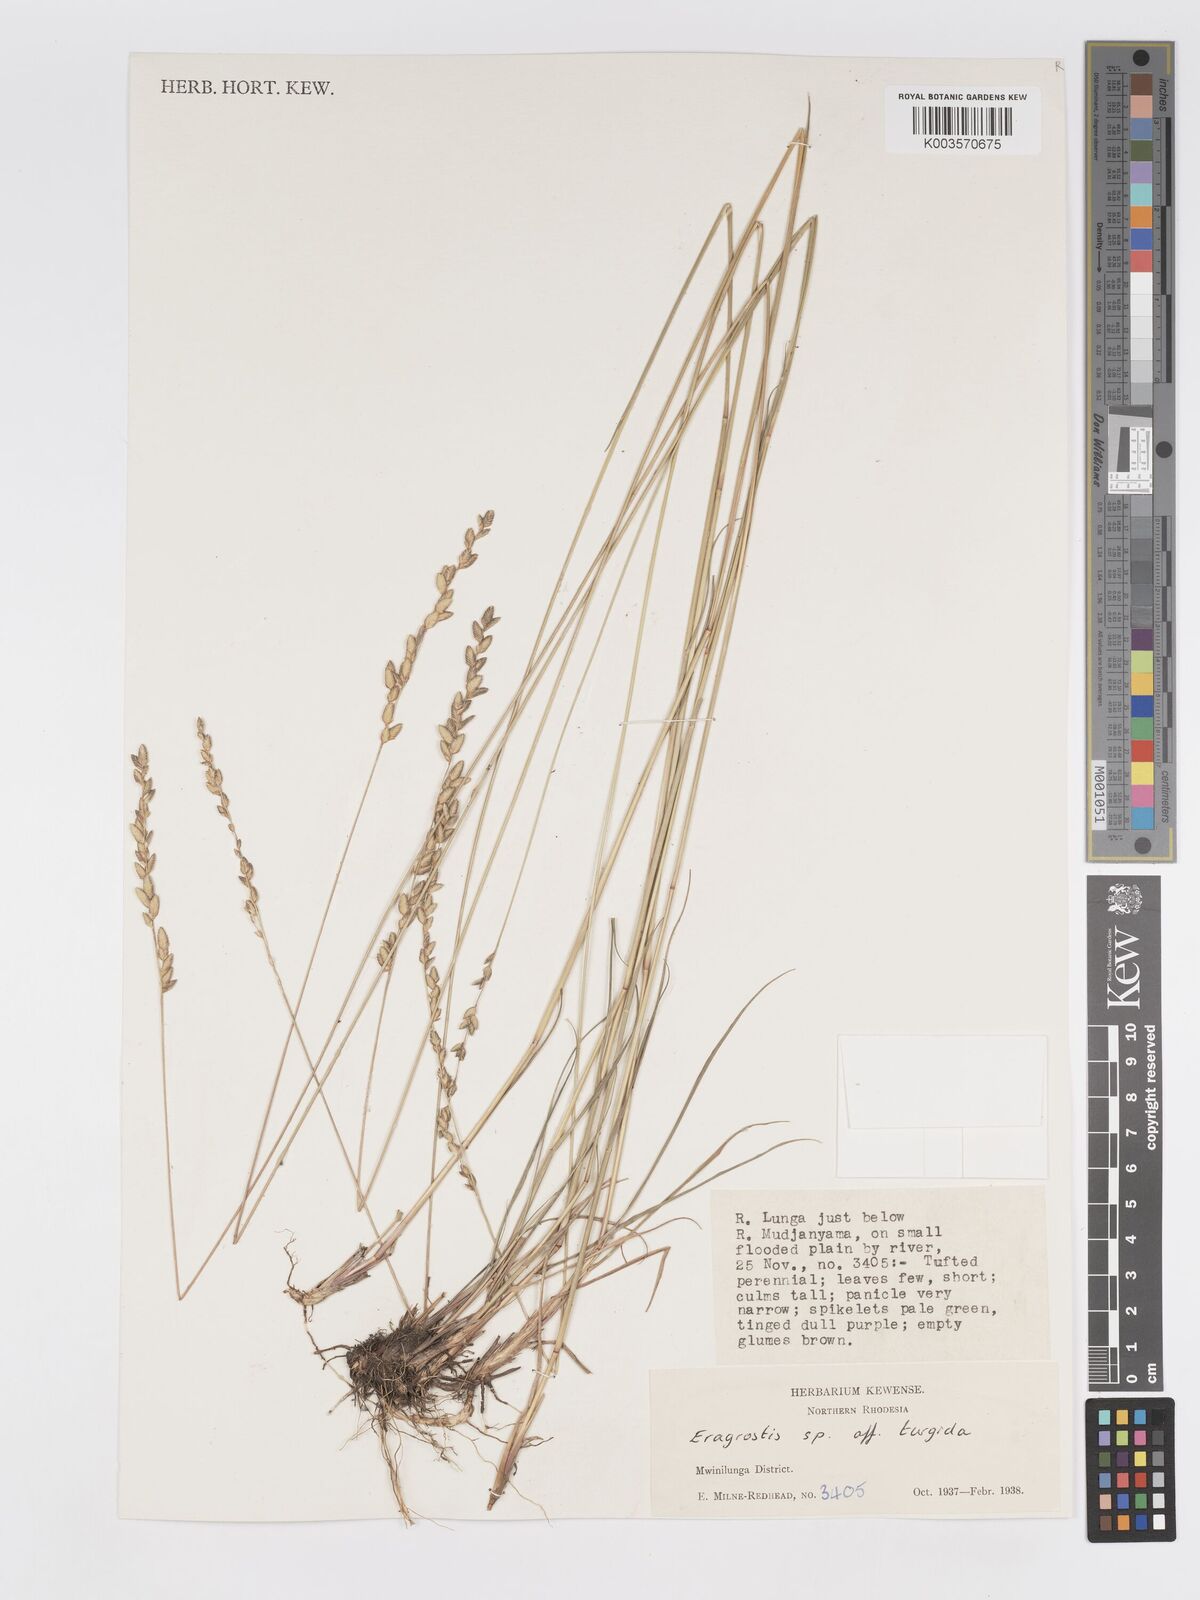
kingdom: Plantae
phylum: Tracheophyta
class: Liliopsida
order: Poales
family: Poaceae
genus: Eragrostis
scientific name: Eragrostis capensis
